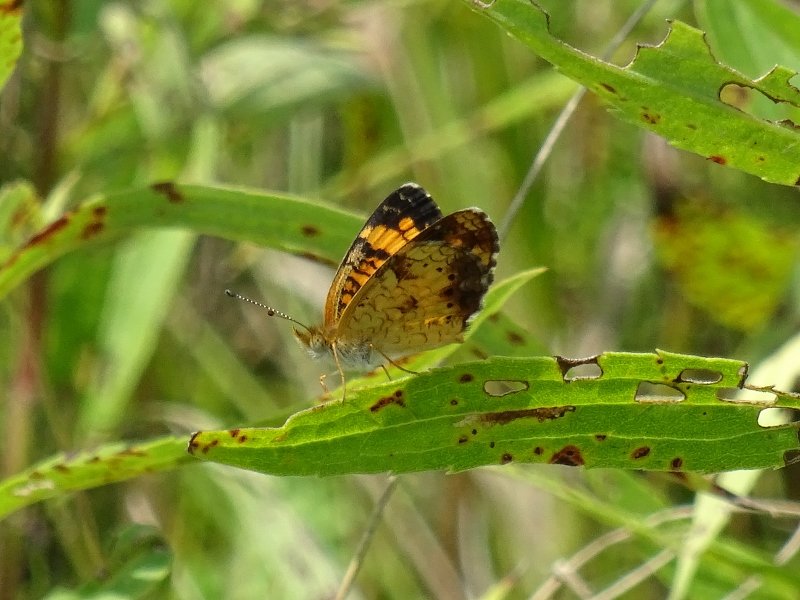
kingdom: Animalia
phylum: Arthropoda
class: Insecta
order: Lepidoptera
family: Nymphalidae
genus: Phyciodes
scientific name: Phyciodes tharos
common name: Pearl Crescent
